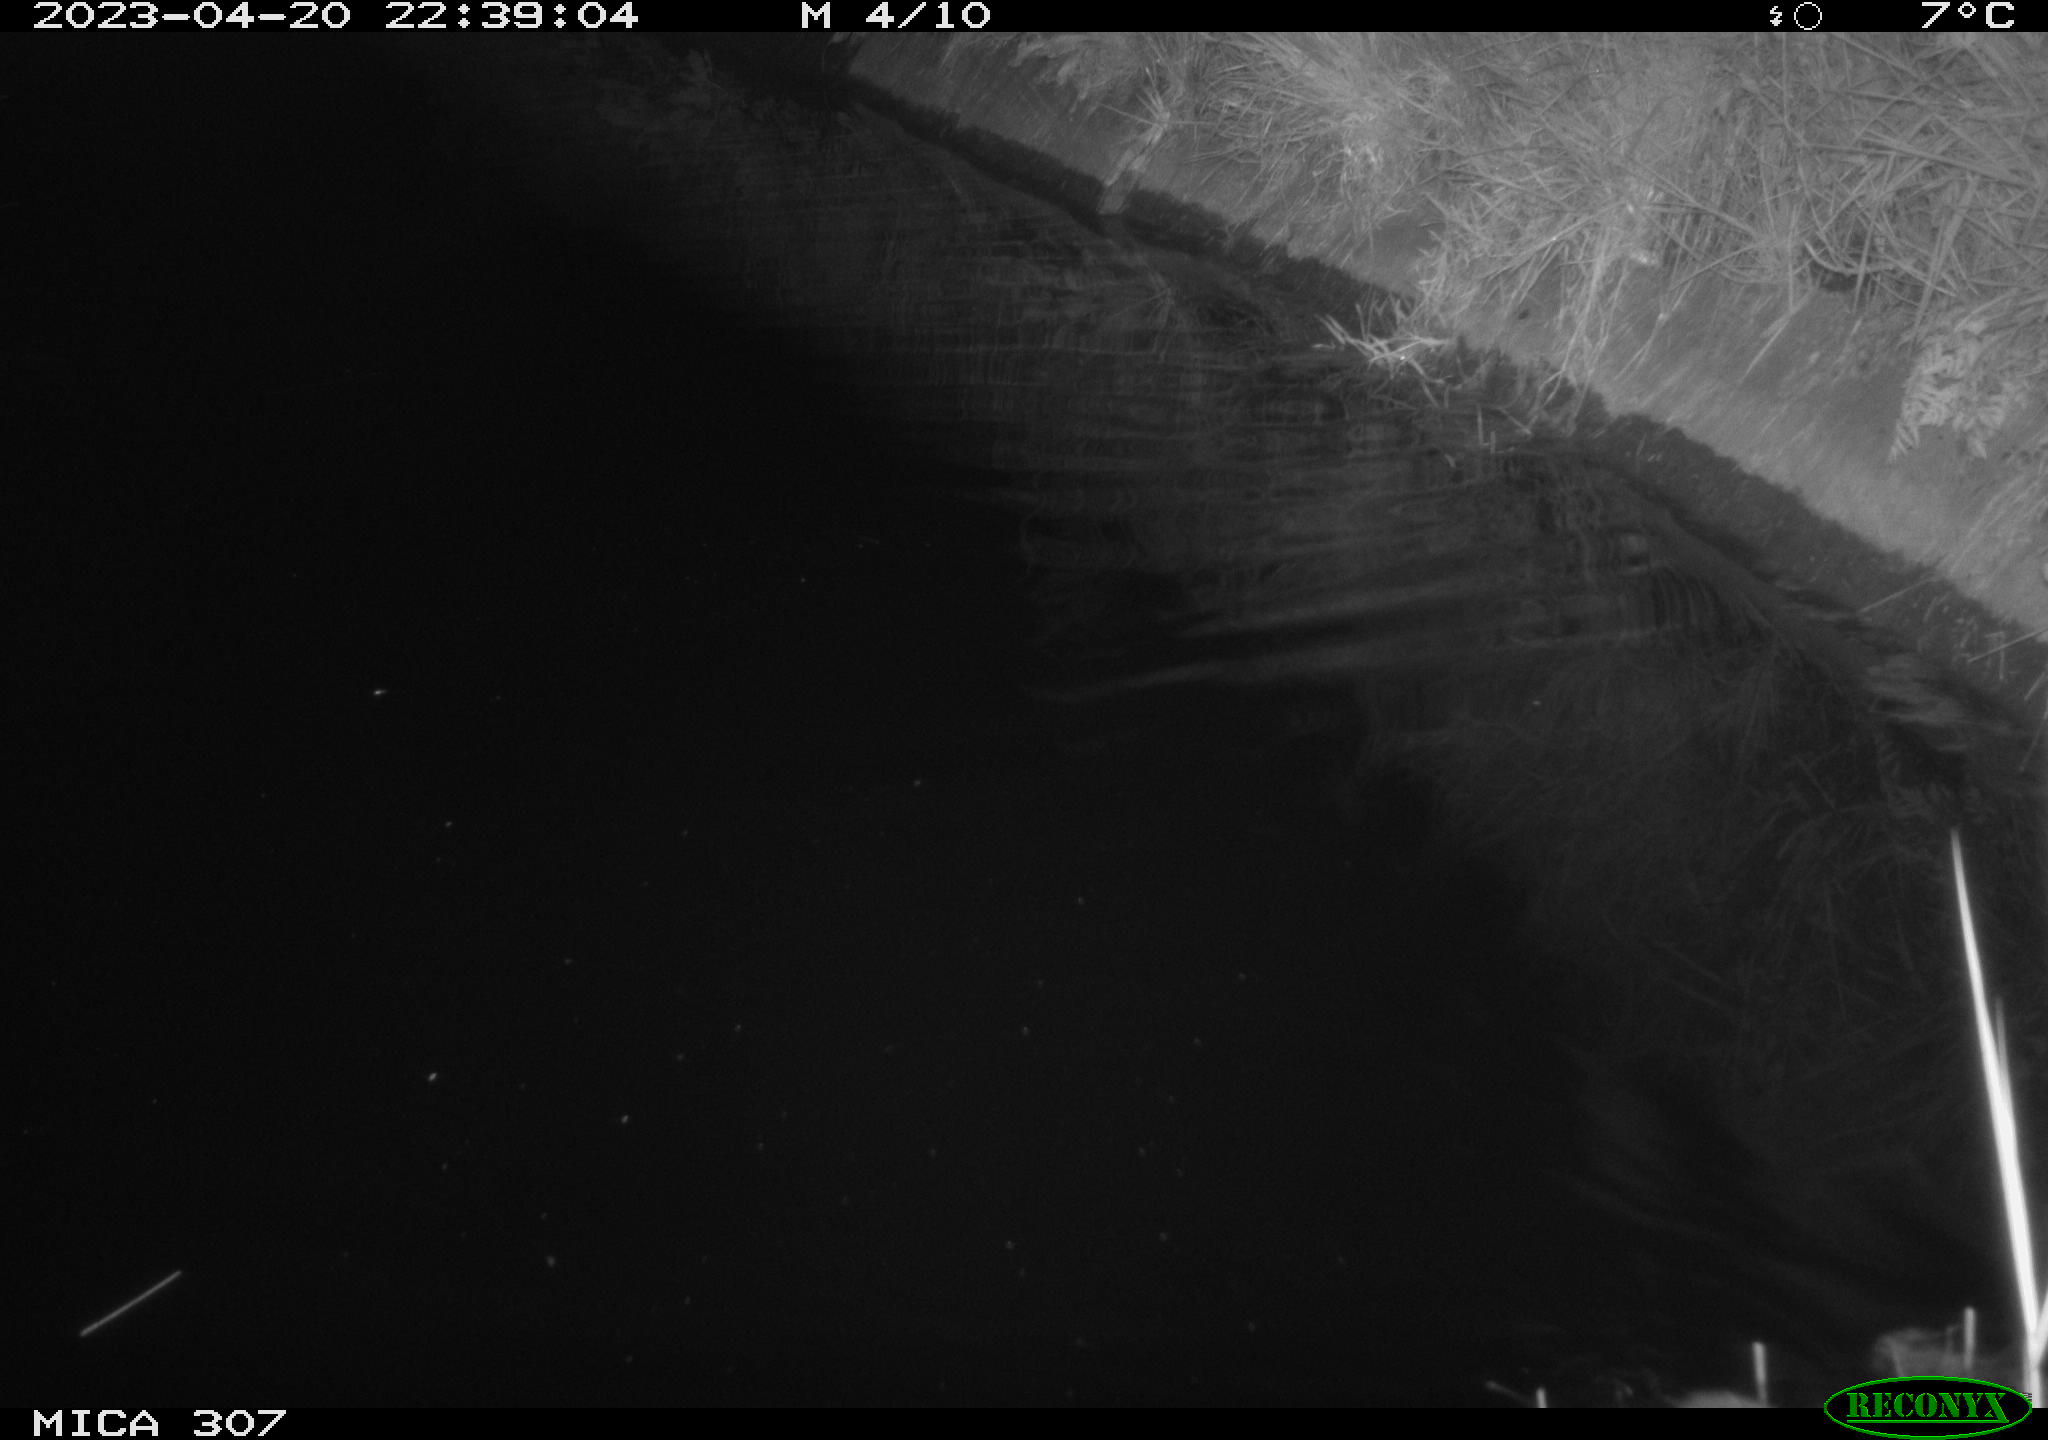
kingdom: Animalia
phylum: Chordata
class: Mammalia
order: Rodentia
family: Muridae
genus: Rattus
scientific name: Rattus norvegicus
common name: Brown rat
